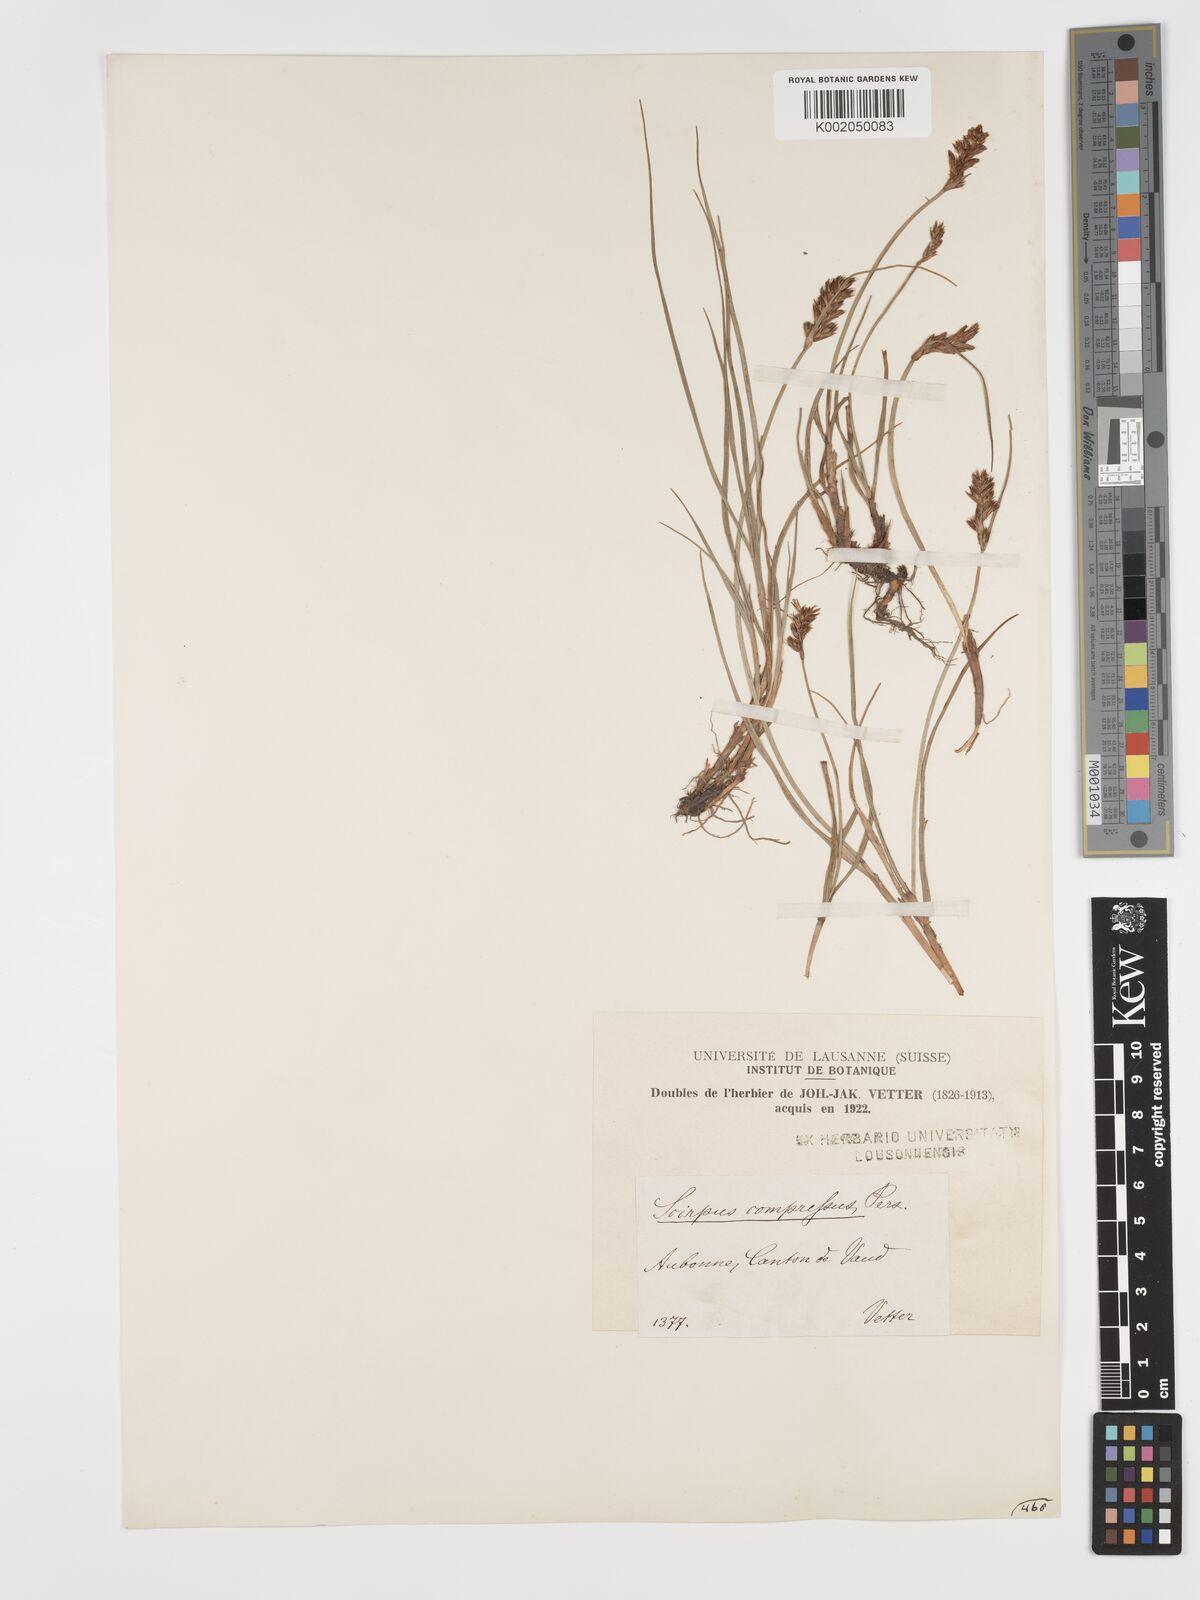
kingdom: Plantae
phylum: Tracheophyta
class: Liliopsida
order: Poales
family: Cyperaceae
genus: Blysmus
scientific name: Blysmus compressus
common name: Flat-sedge
